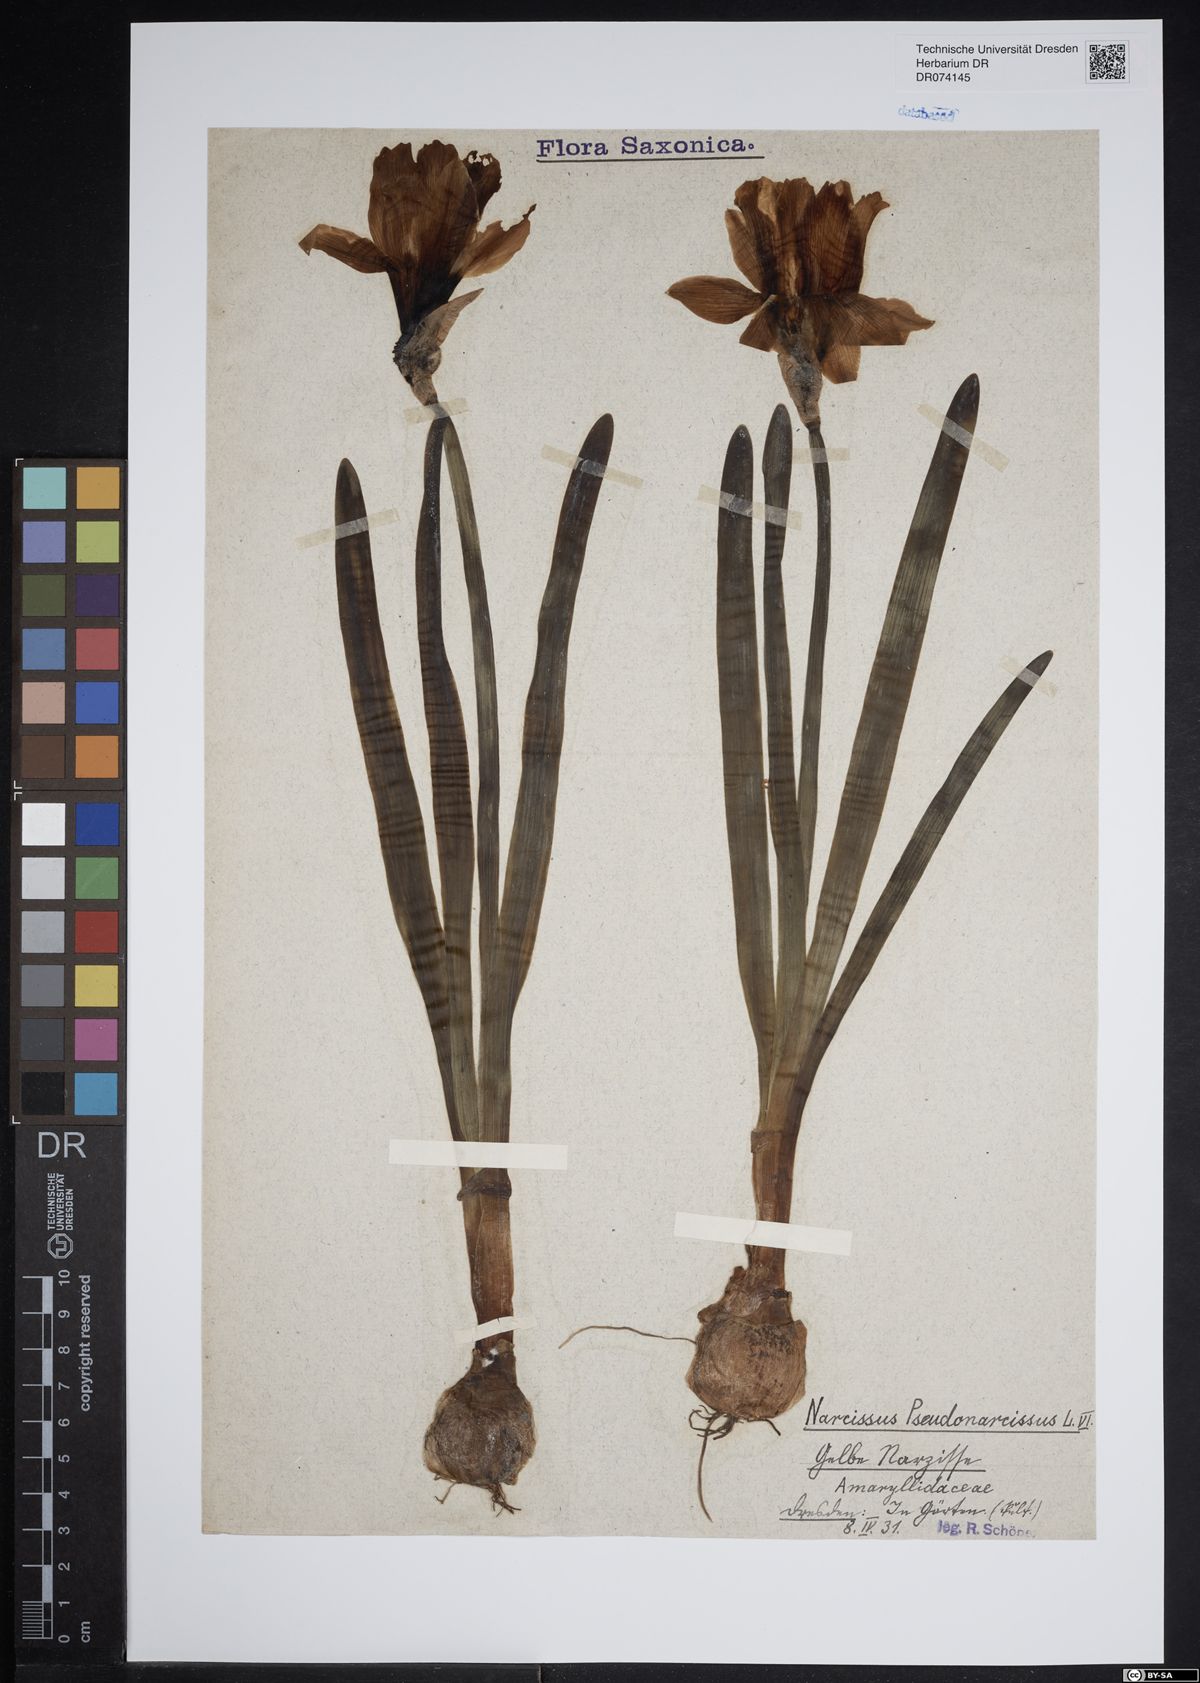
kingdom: Plantae
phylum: Tracheophyta
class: Liliopsida
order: Asparagales
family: Amaryllidaceae
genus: Narcissus
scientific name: Narcissus pseudonarcissus
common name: Daffodil
